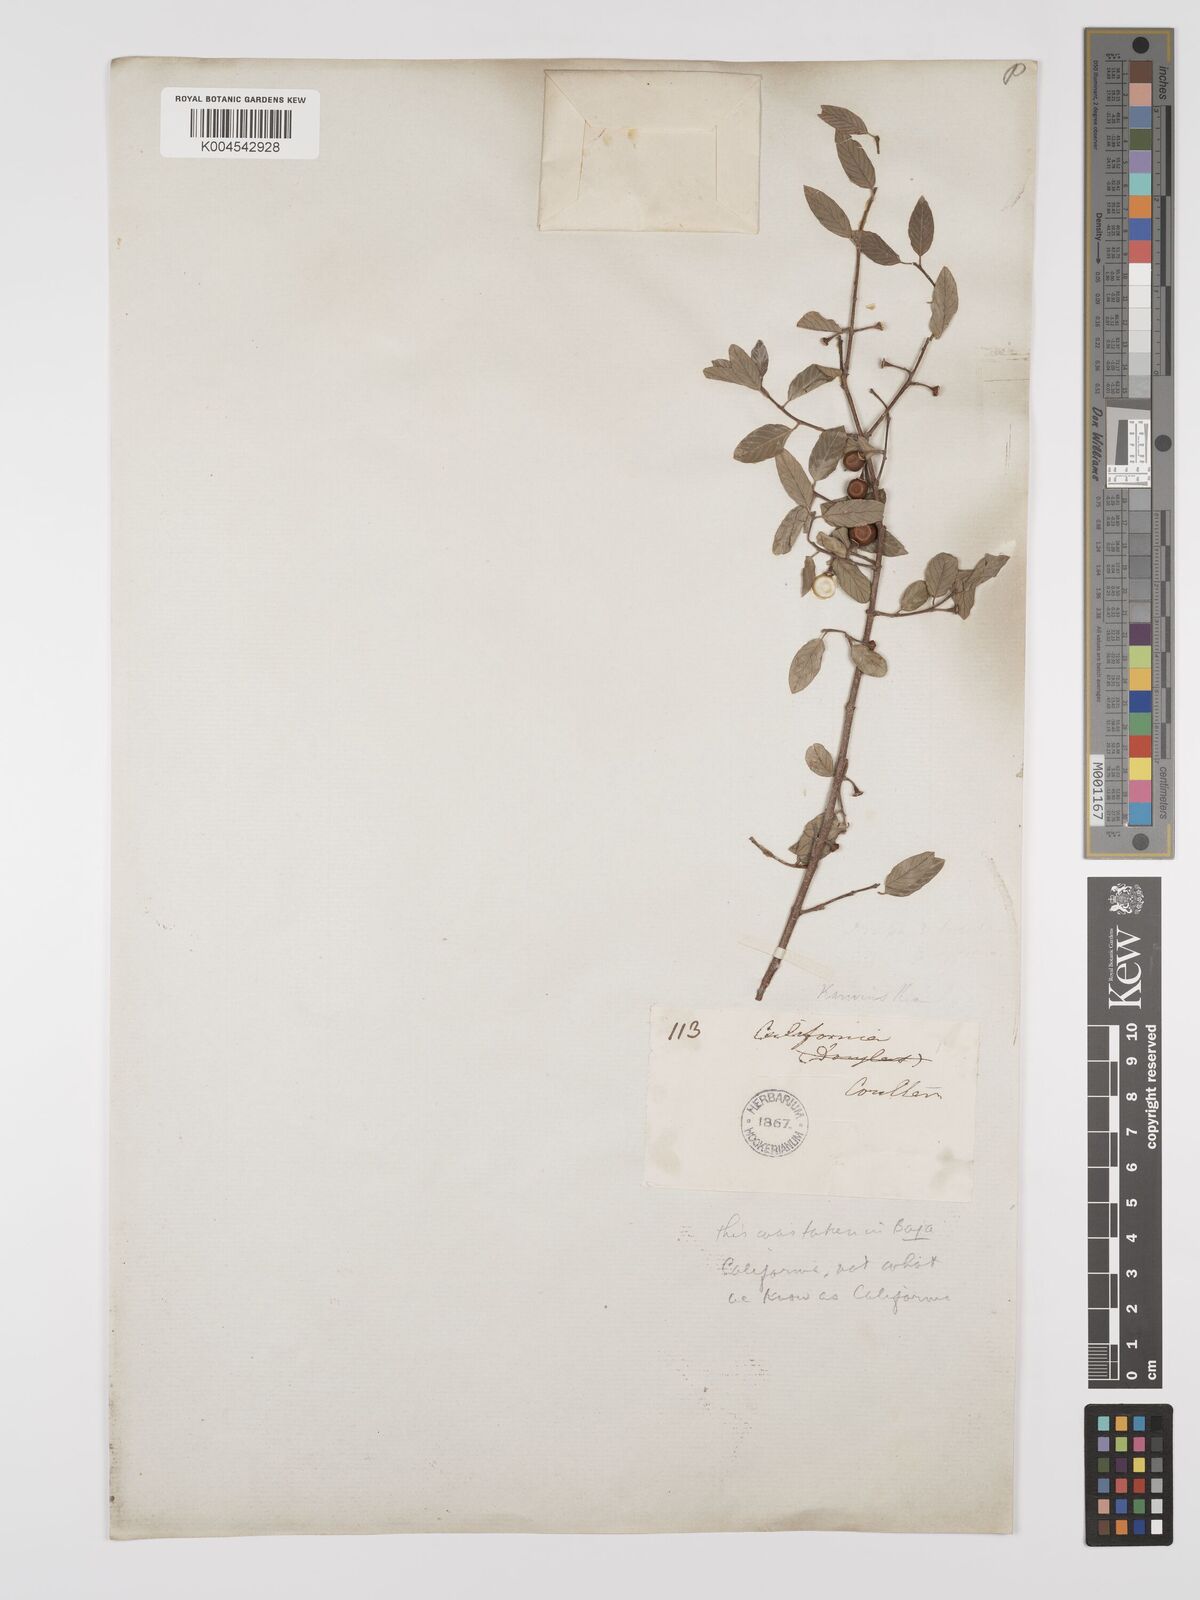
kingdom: Plantae
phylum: Tracheophyta
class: Magnoliopsida
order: Rosales
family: Rhamnaceae
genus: Karwinskia
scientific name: Karwinskia parvifolia
